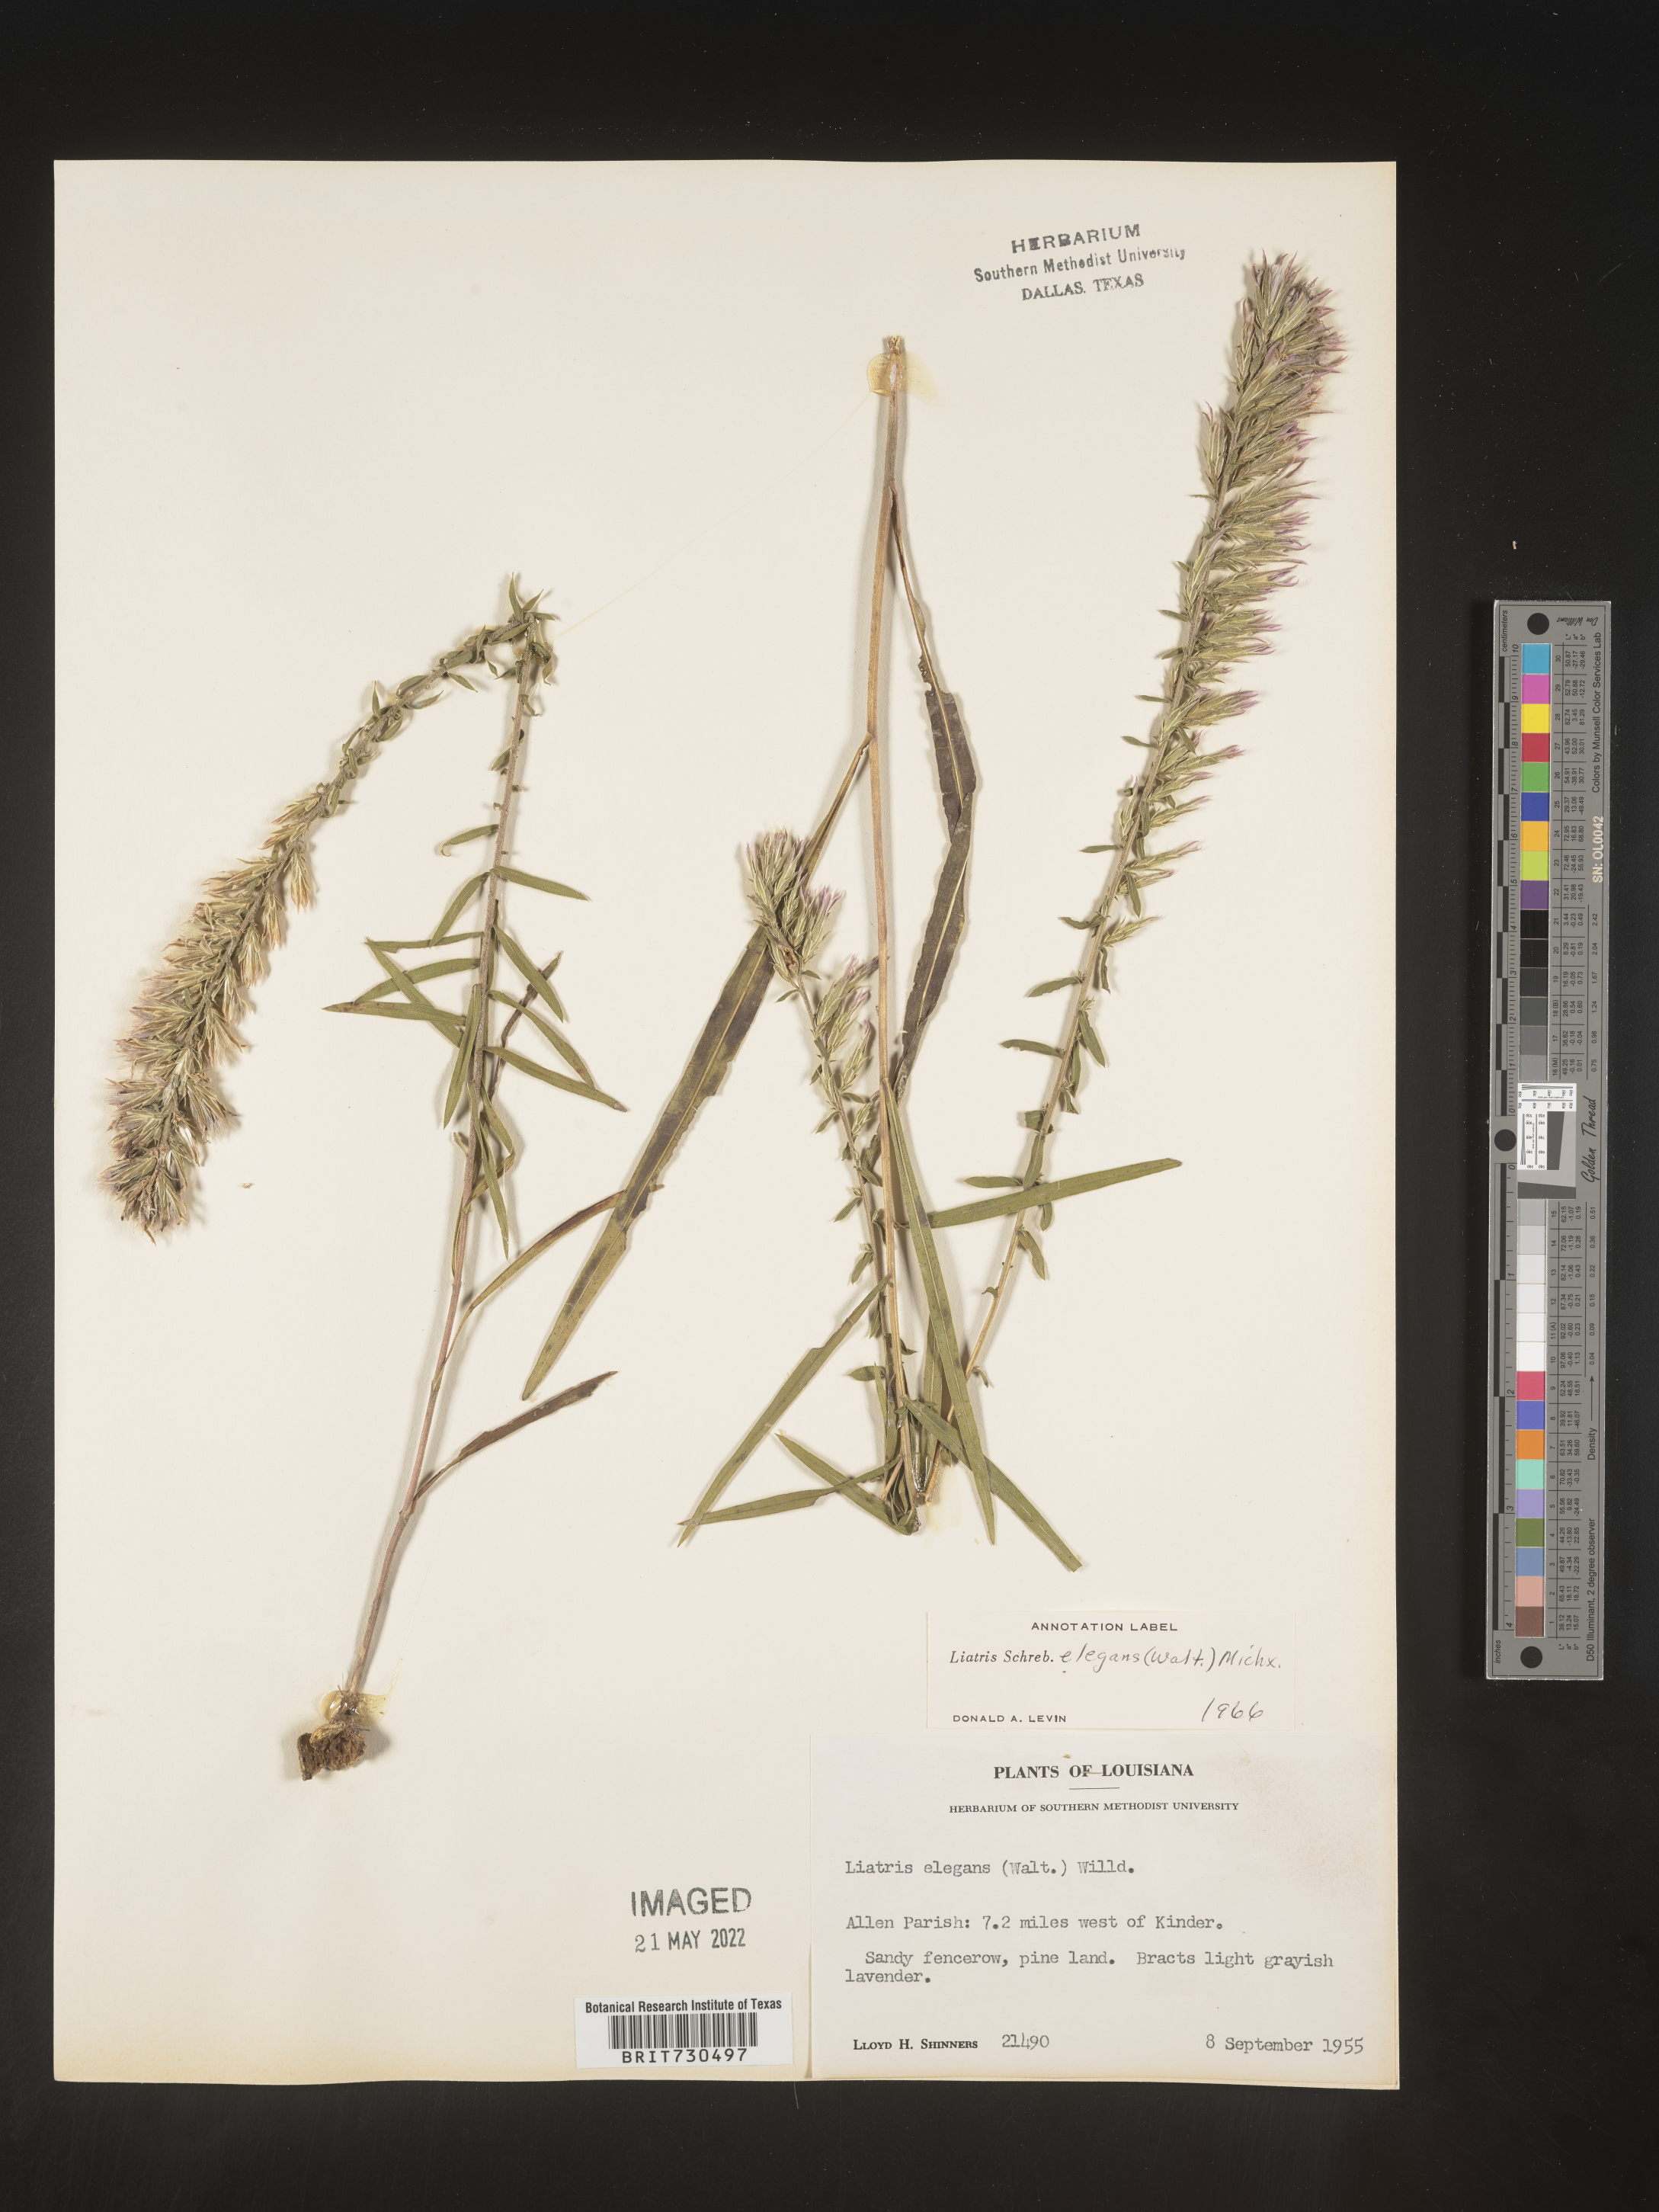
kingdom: Plantae
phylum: Tracheophyta
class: Magnoliopsida
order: Asterales
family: Asteraceae
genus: Liatris
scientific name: Liatris elegans
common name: Pinkscale gayfeather
